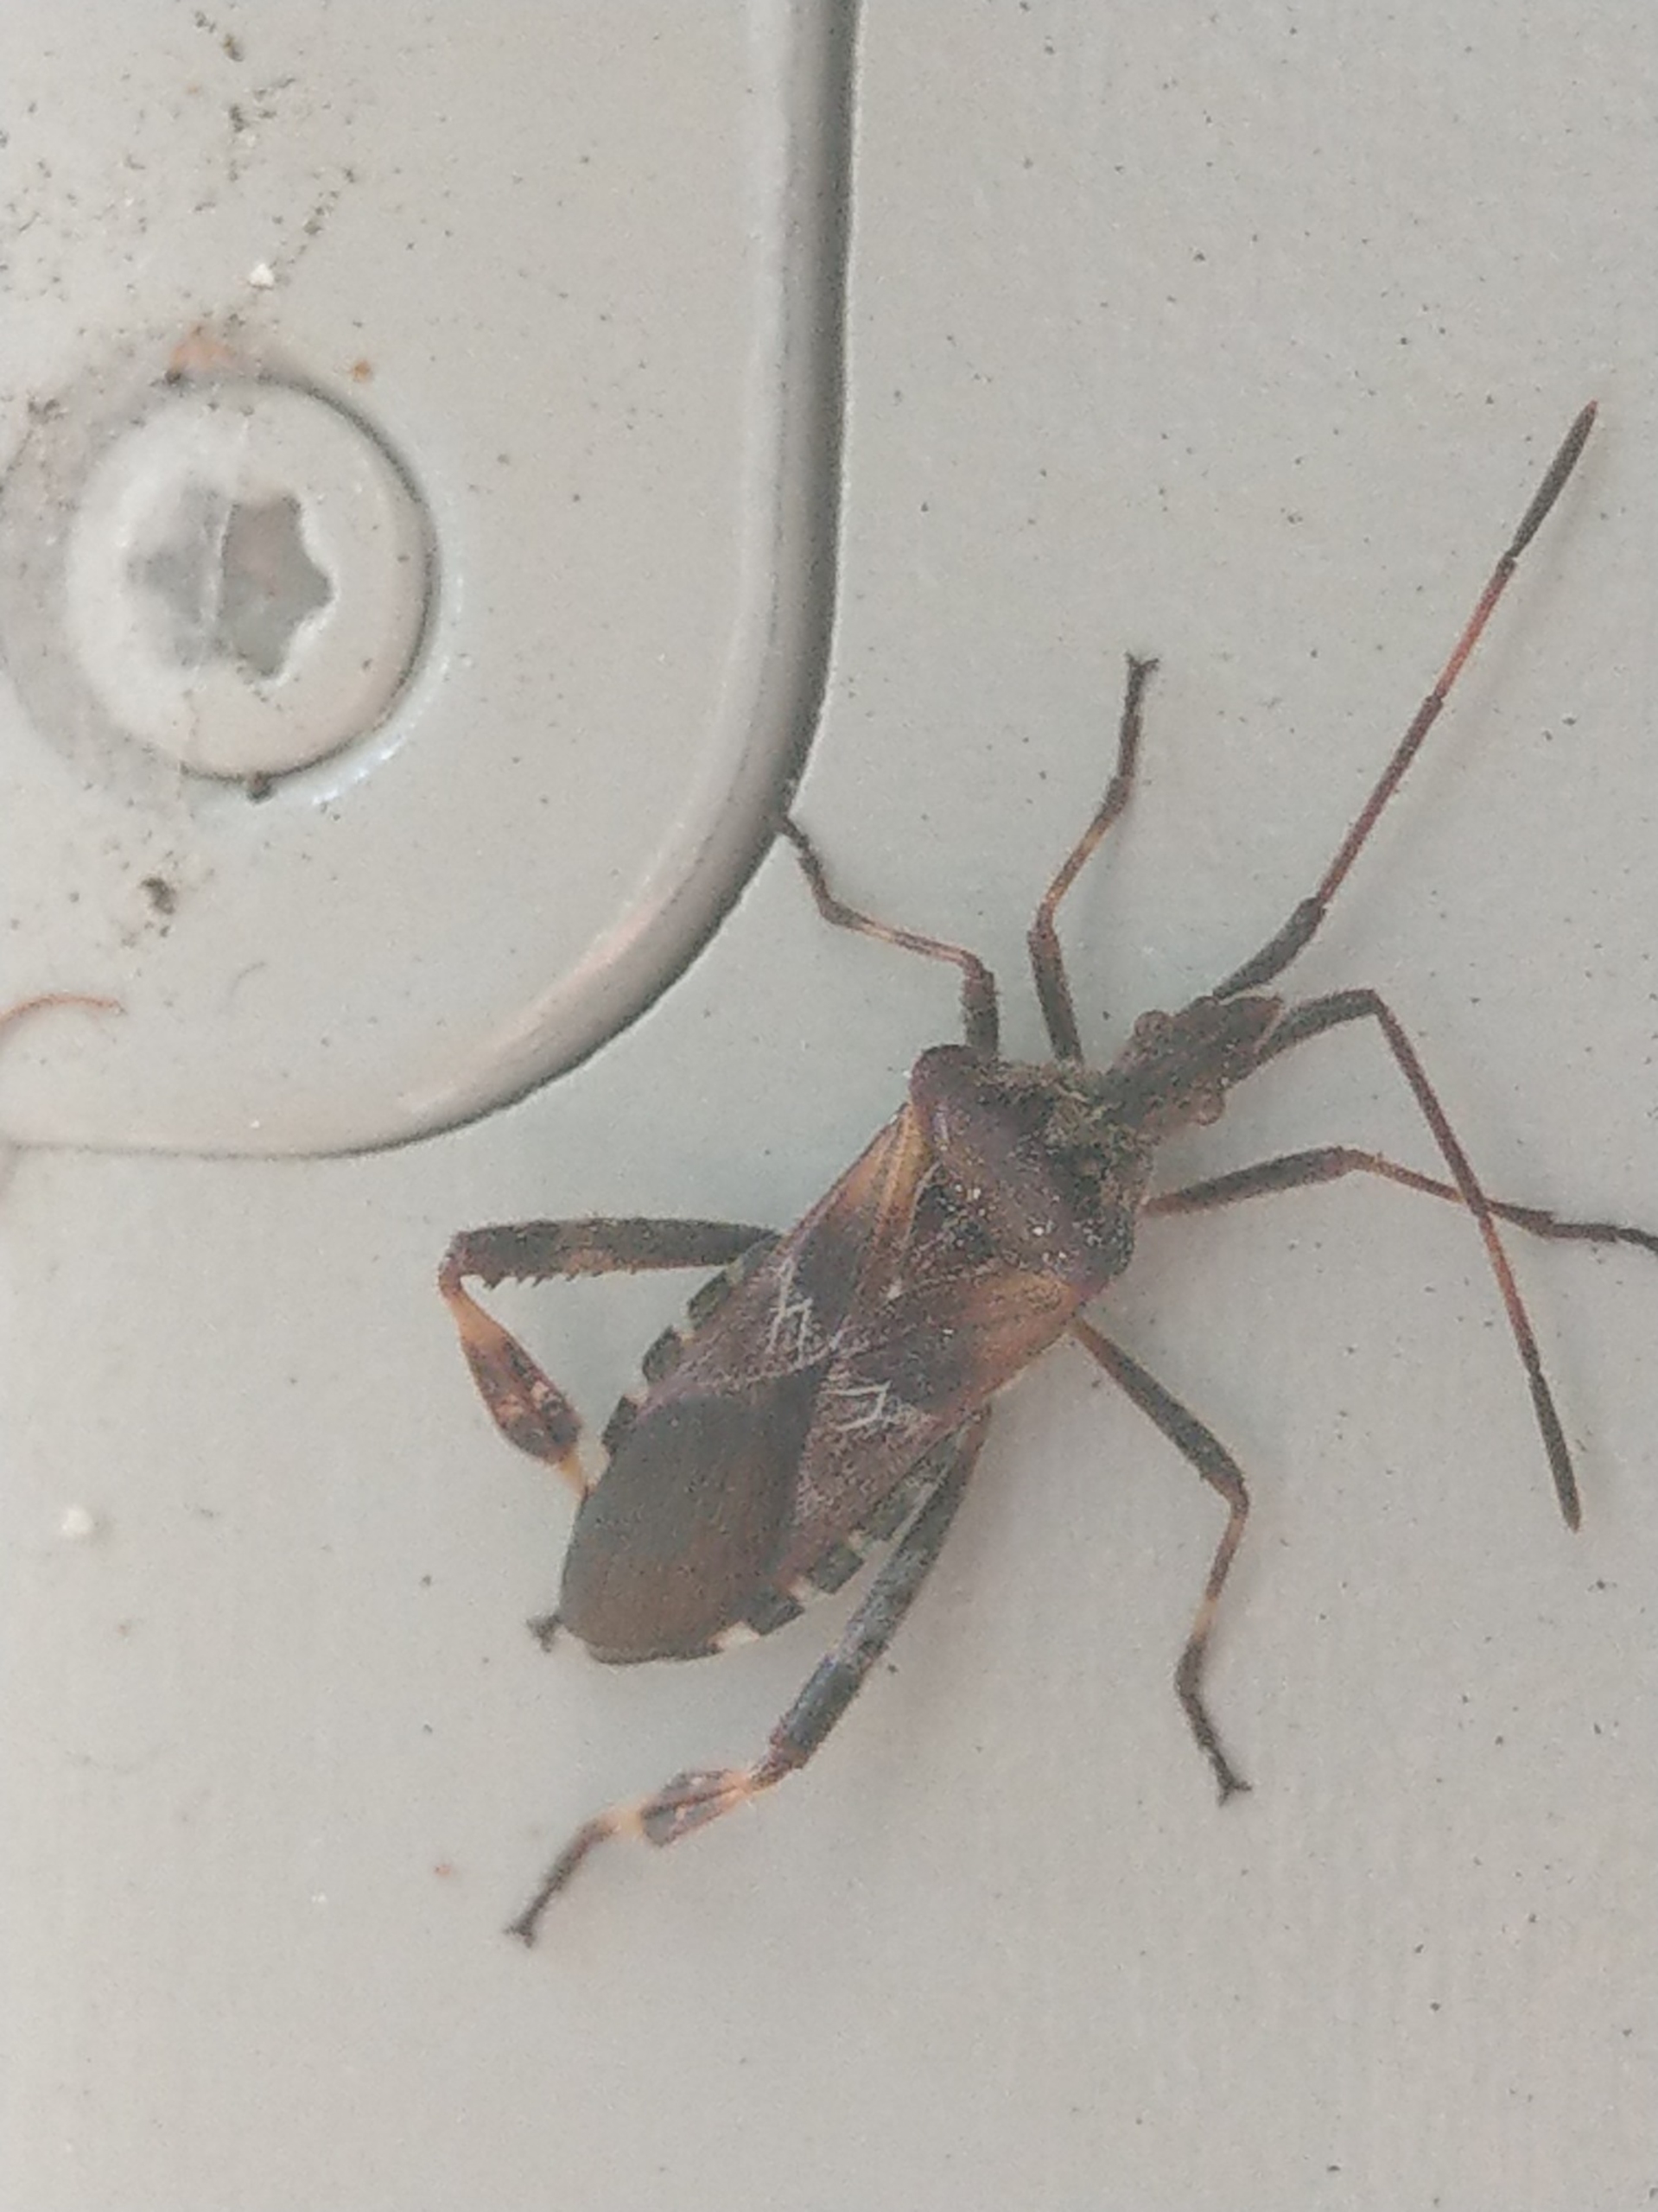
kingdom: Animalia
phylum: Arthropoda
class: Insecta
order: Hemiptera
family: Coreidae
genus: Leptoglossus
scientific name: Leptoglossus occidentalis
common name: Amerikansk fyrretæge
